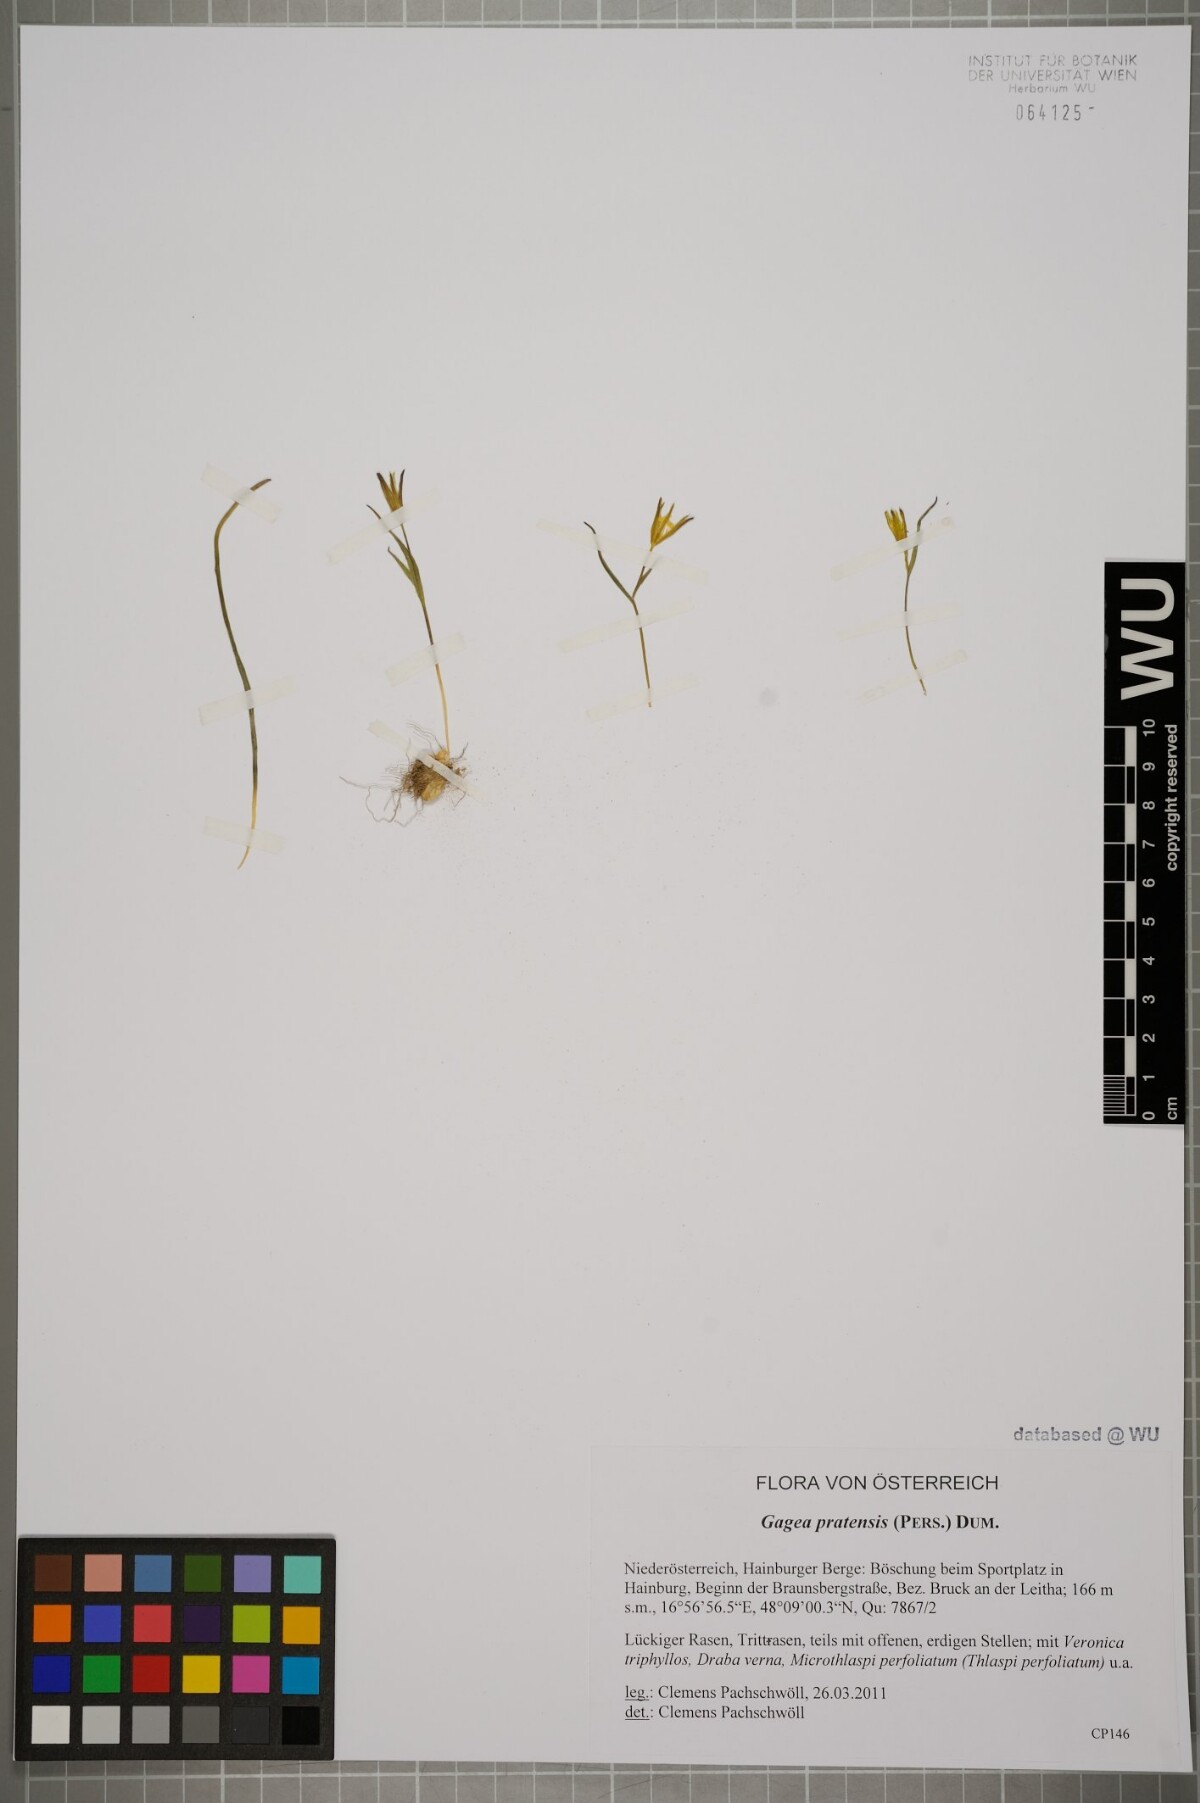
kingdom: Plantae
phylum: Tracheophyta
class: Liliopsida
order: Liliales
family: Liliaceae
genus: Gagea
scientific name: Gagea pratensis
